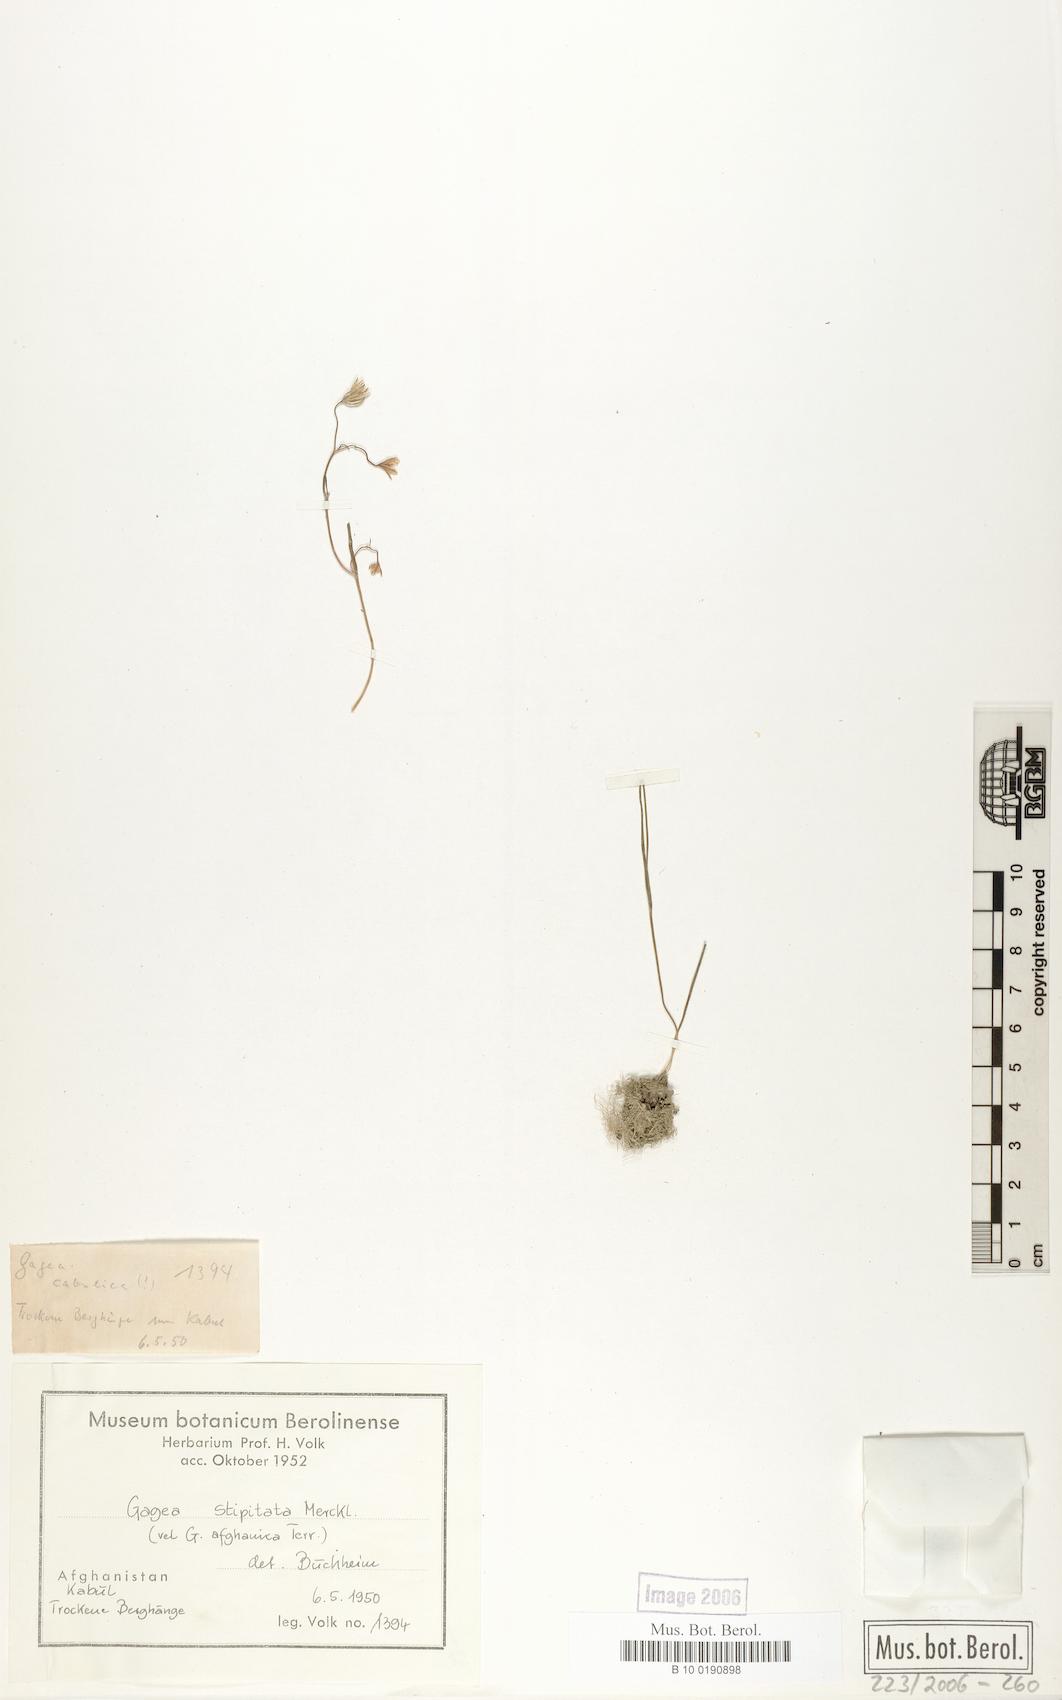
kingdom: Plantae
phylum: Tracheophyta
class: Liliopsida
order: Liliales
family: Liliaceae
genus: Gagea
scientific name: Gagea kunawurensis
